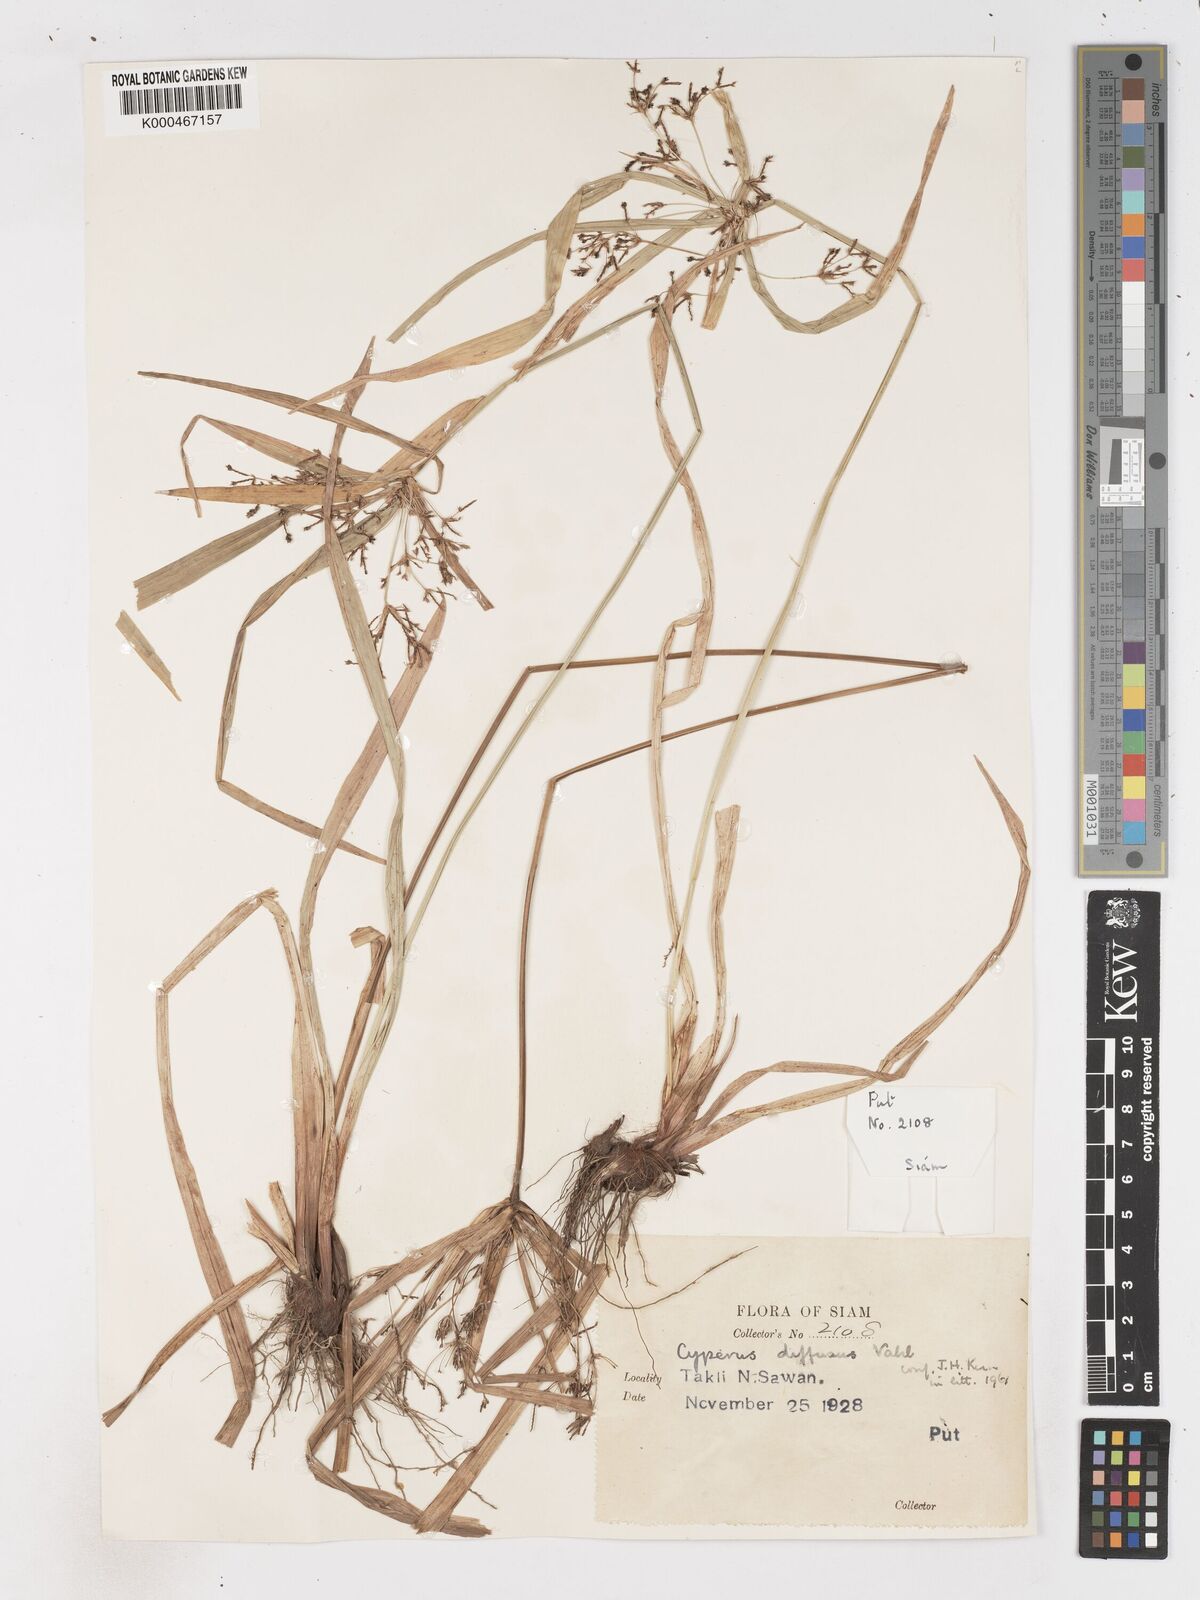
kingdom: Plantae
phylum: Tracheophyta
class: Liliopsida
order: Poales
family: Cyperaceae
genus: Cyperus
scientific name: Cyperus diffusus
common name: Dwarf umbrella grass
